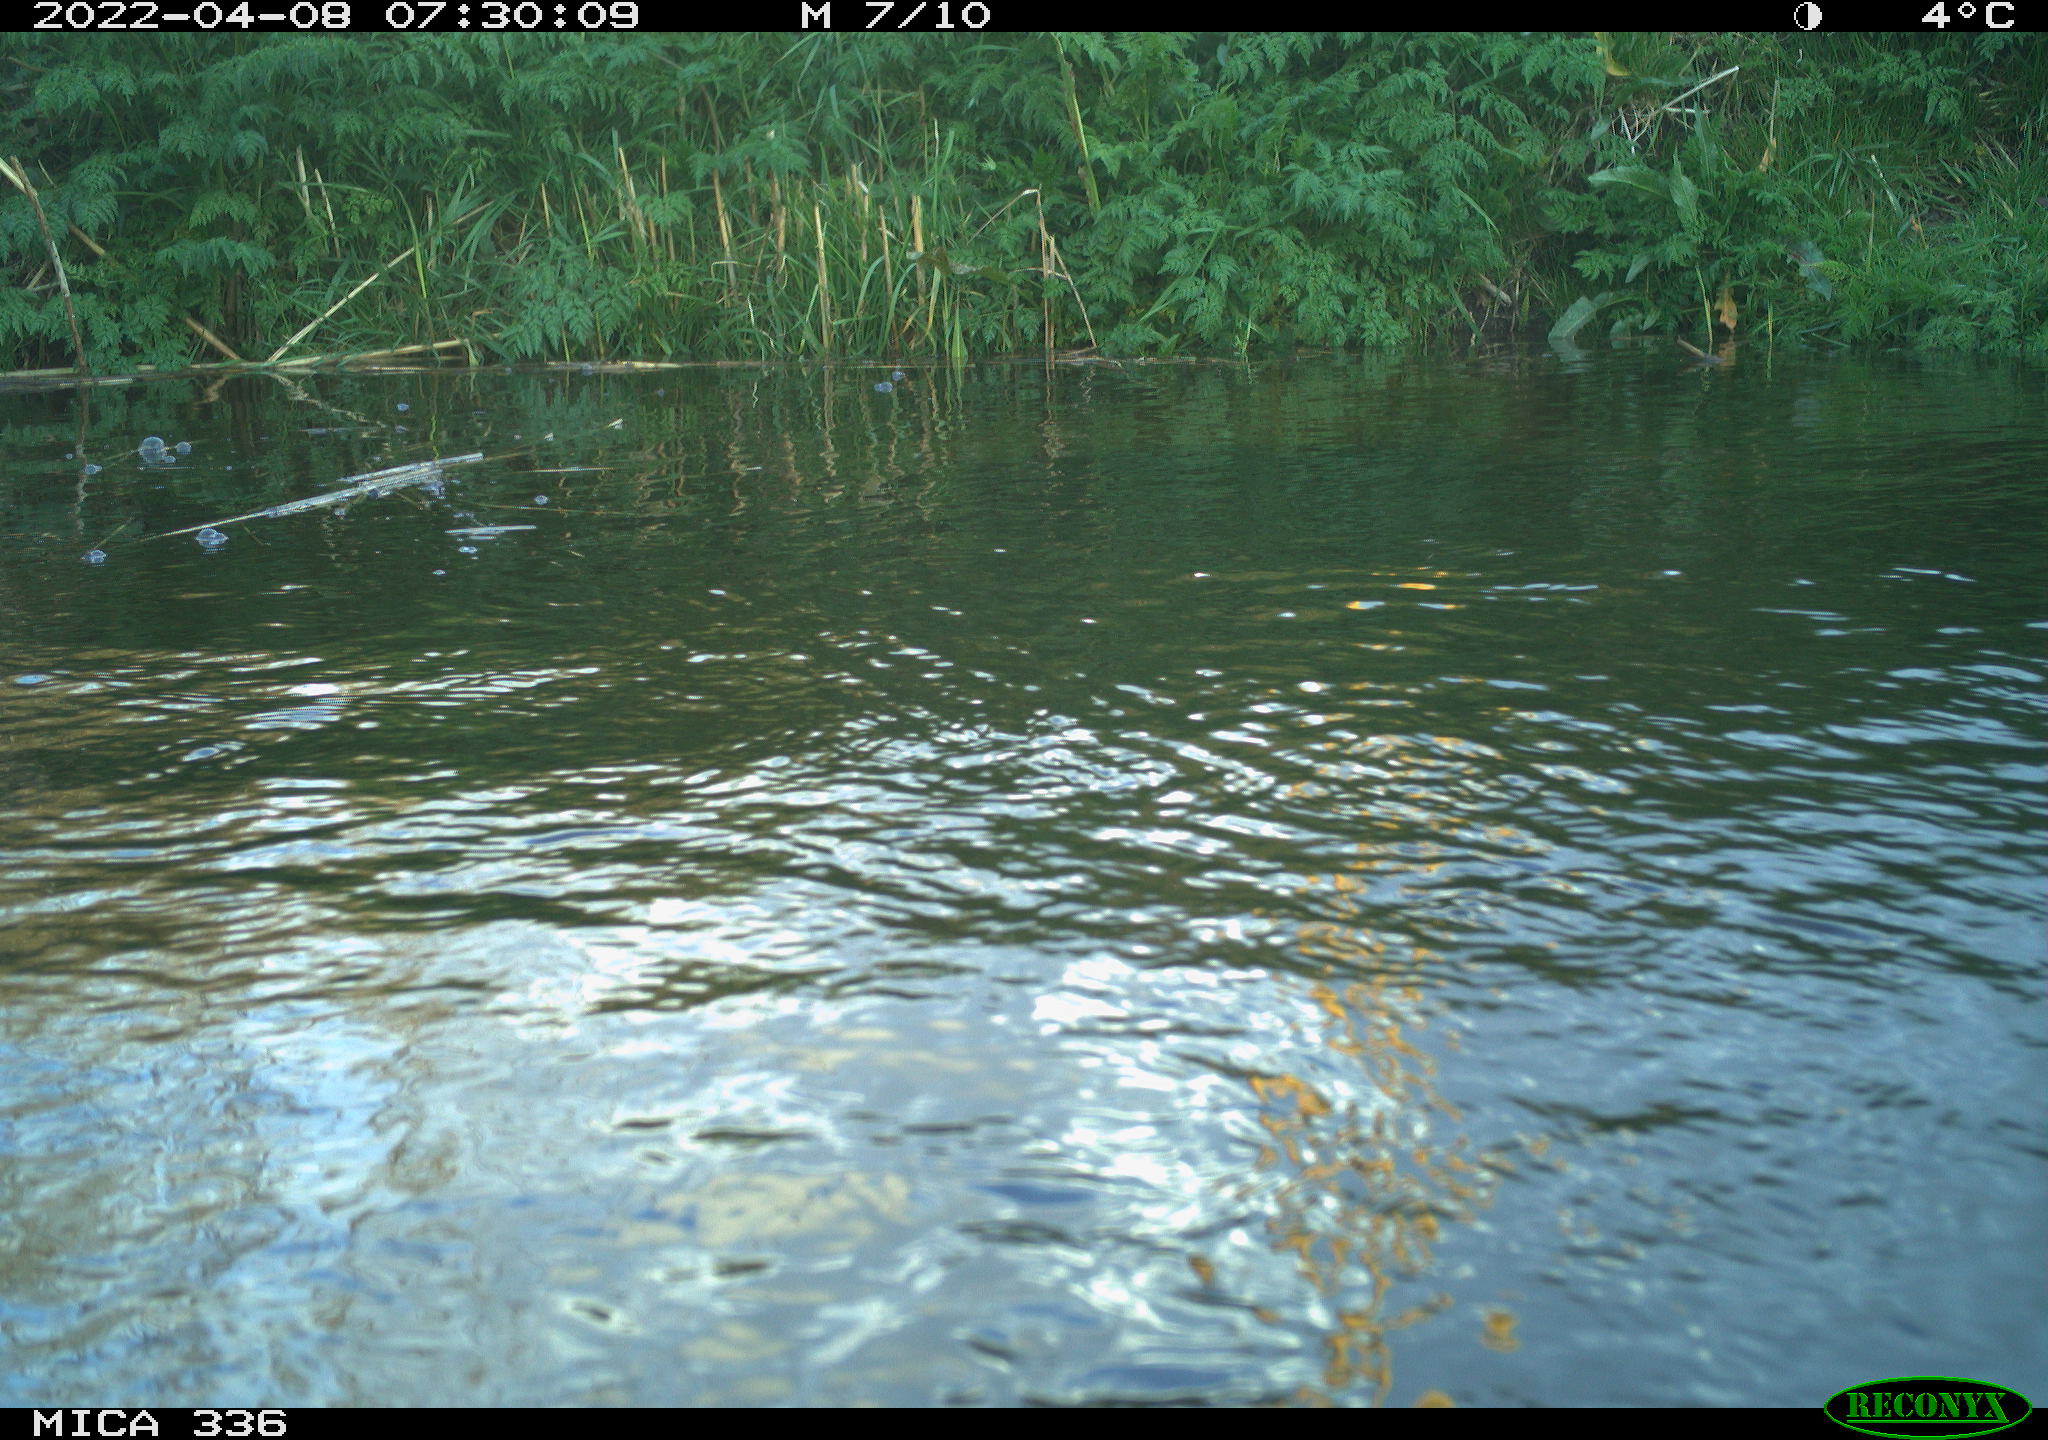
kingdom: Animalia
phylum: Chordata
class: Aves
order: Suliformes
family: Phalacrocoracidae
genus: Phalacrocorax
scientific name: Phalacrocorax carbo
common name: Great cormorant
